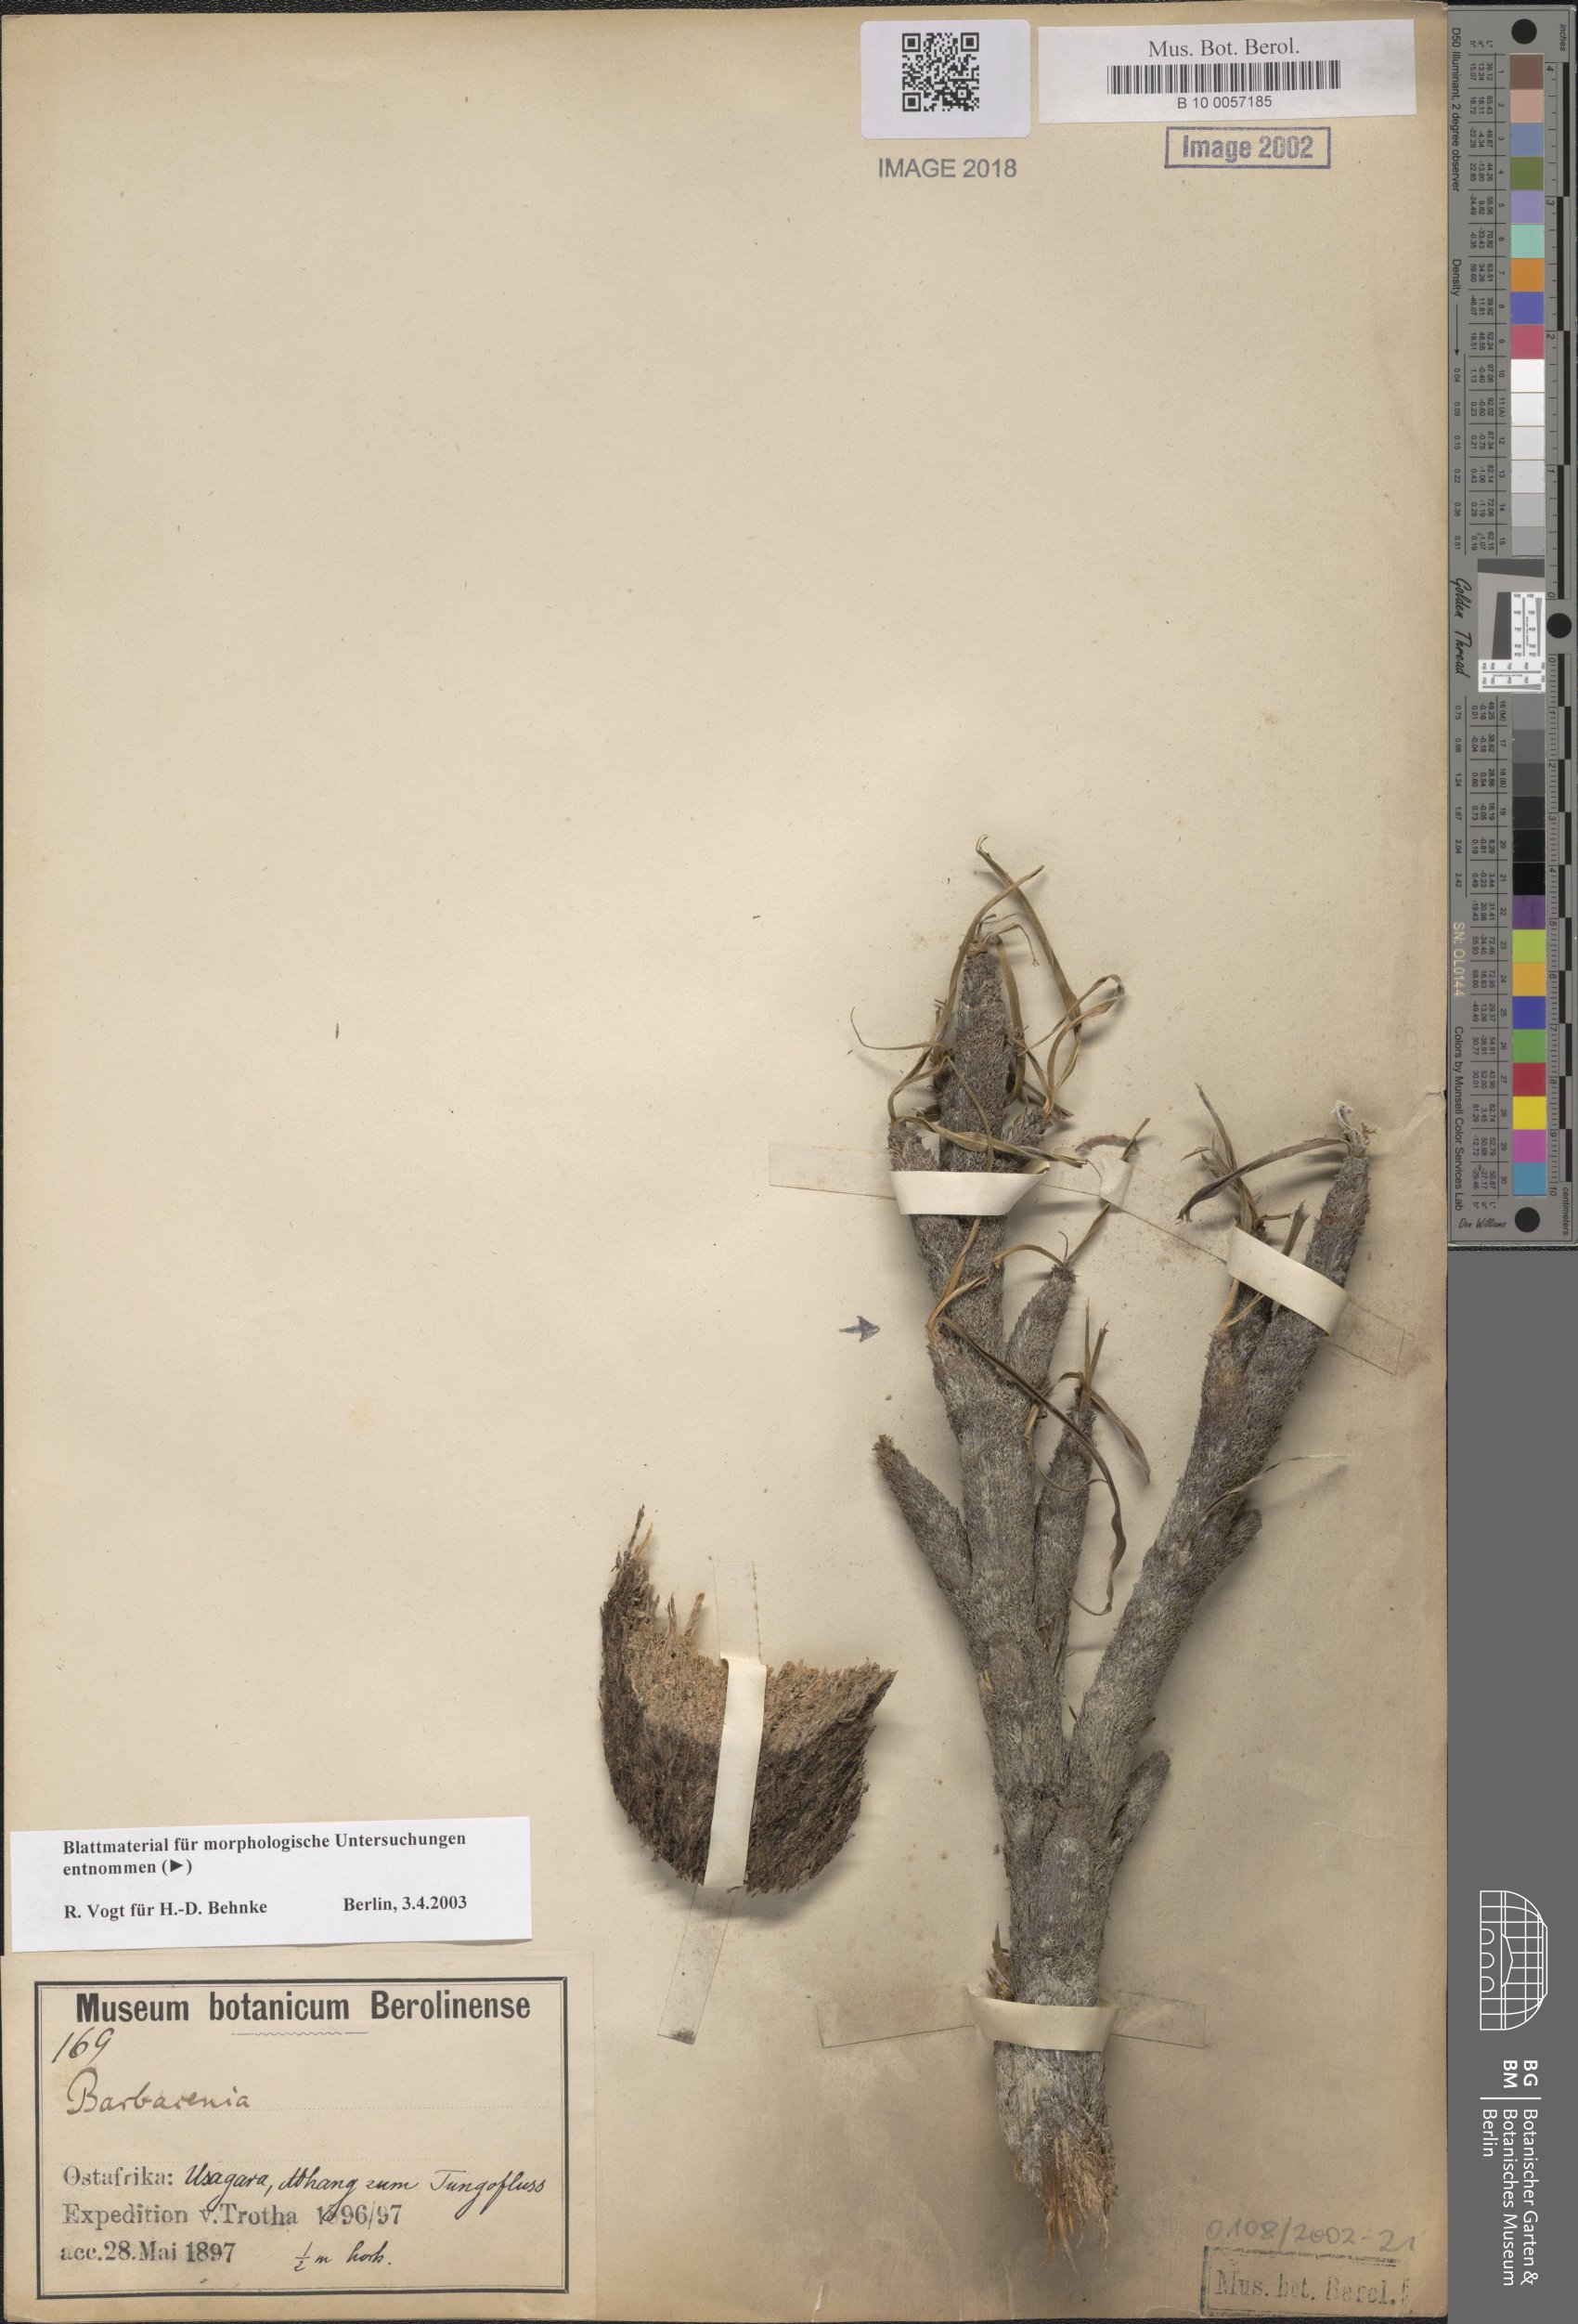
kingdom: Plantae
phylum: Tracheophyta
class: Liliopsida
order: Pandanales
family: Velloziaceae
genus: Vellozia
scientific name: Vellozia
